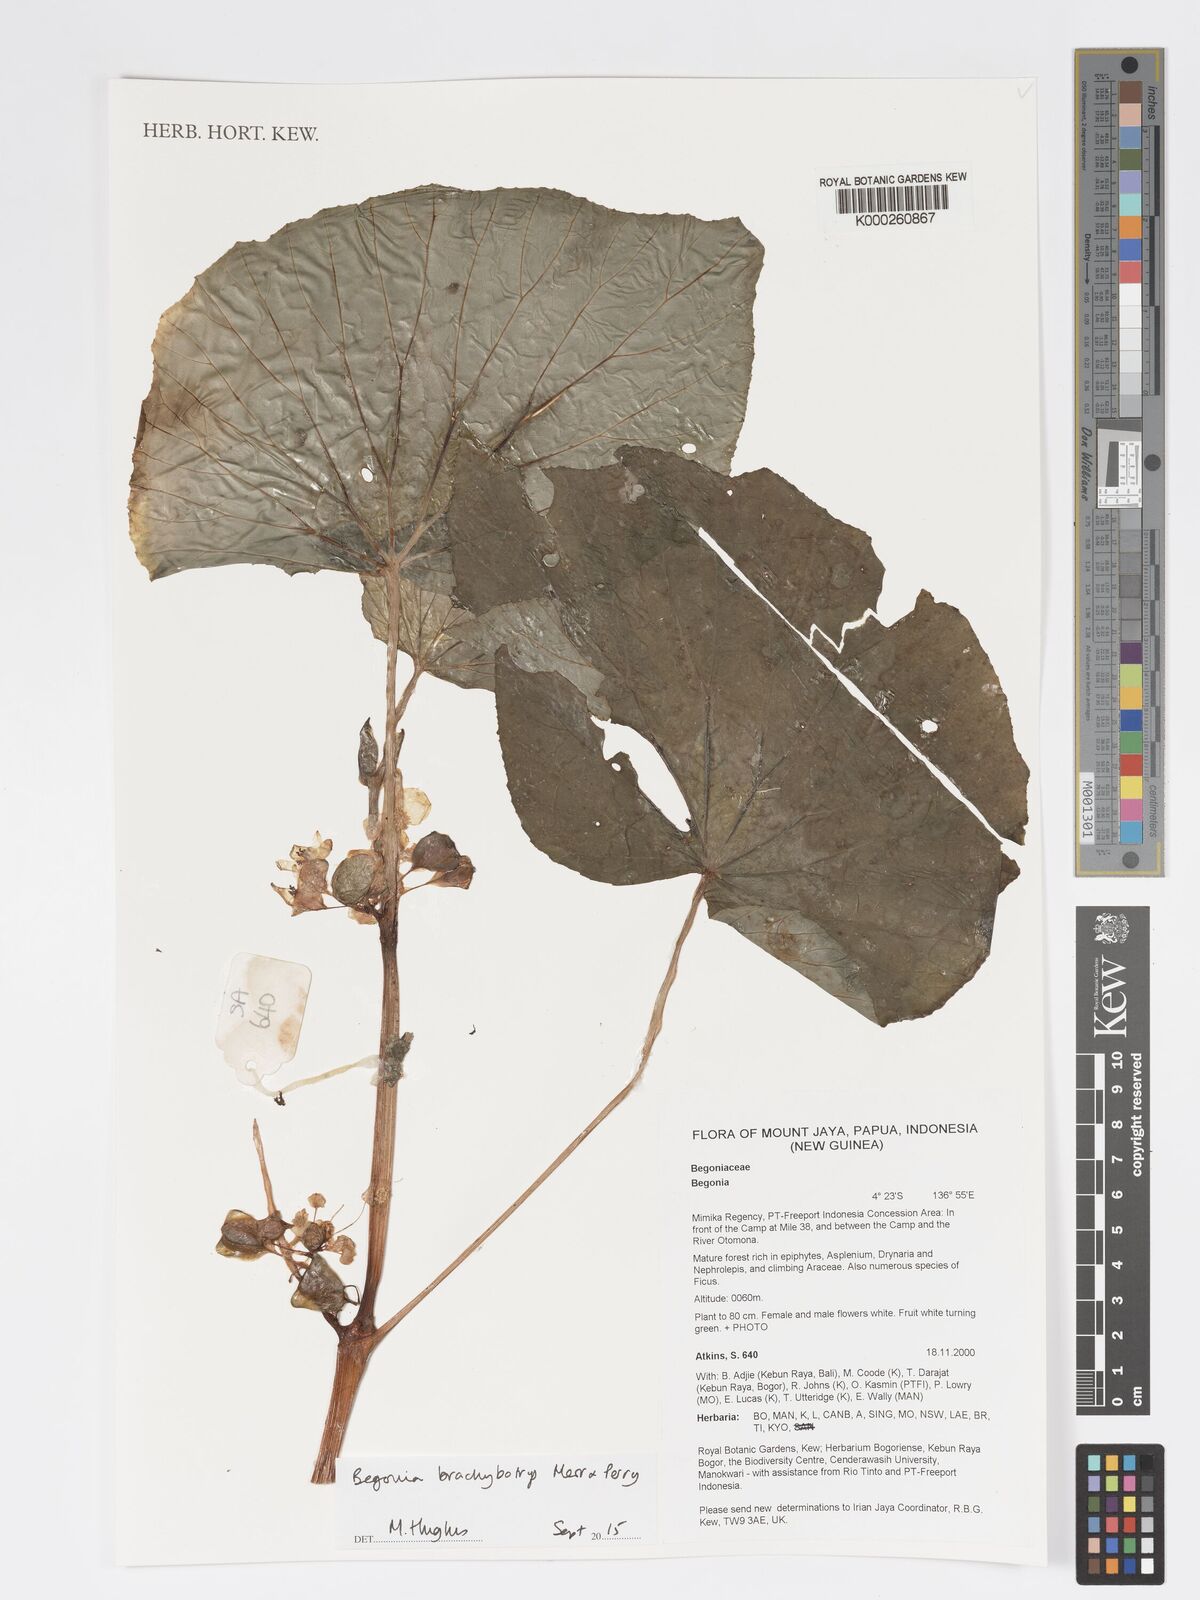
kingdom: Plantae
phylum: Tracheophyta
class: Magnoliopsida
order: Cucurbitales
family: Begoniaceae
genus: Begonia
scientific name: Begonia brachybotrys
